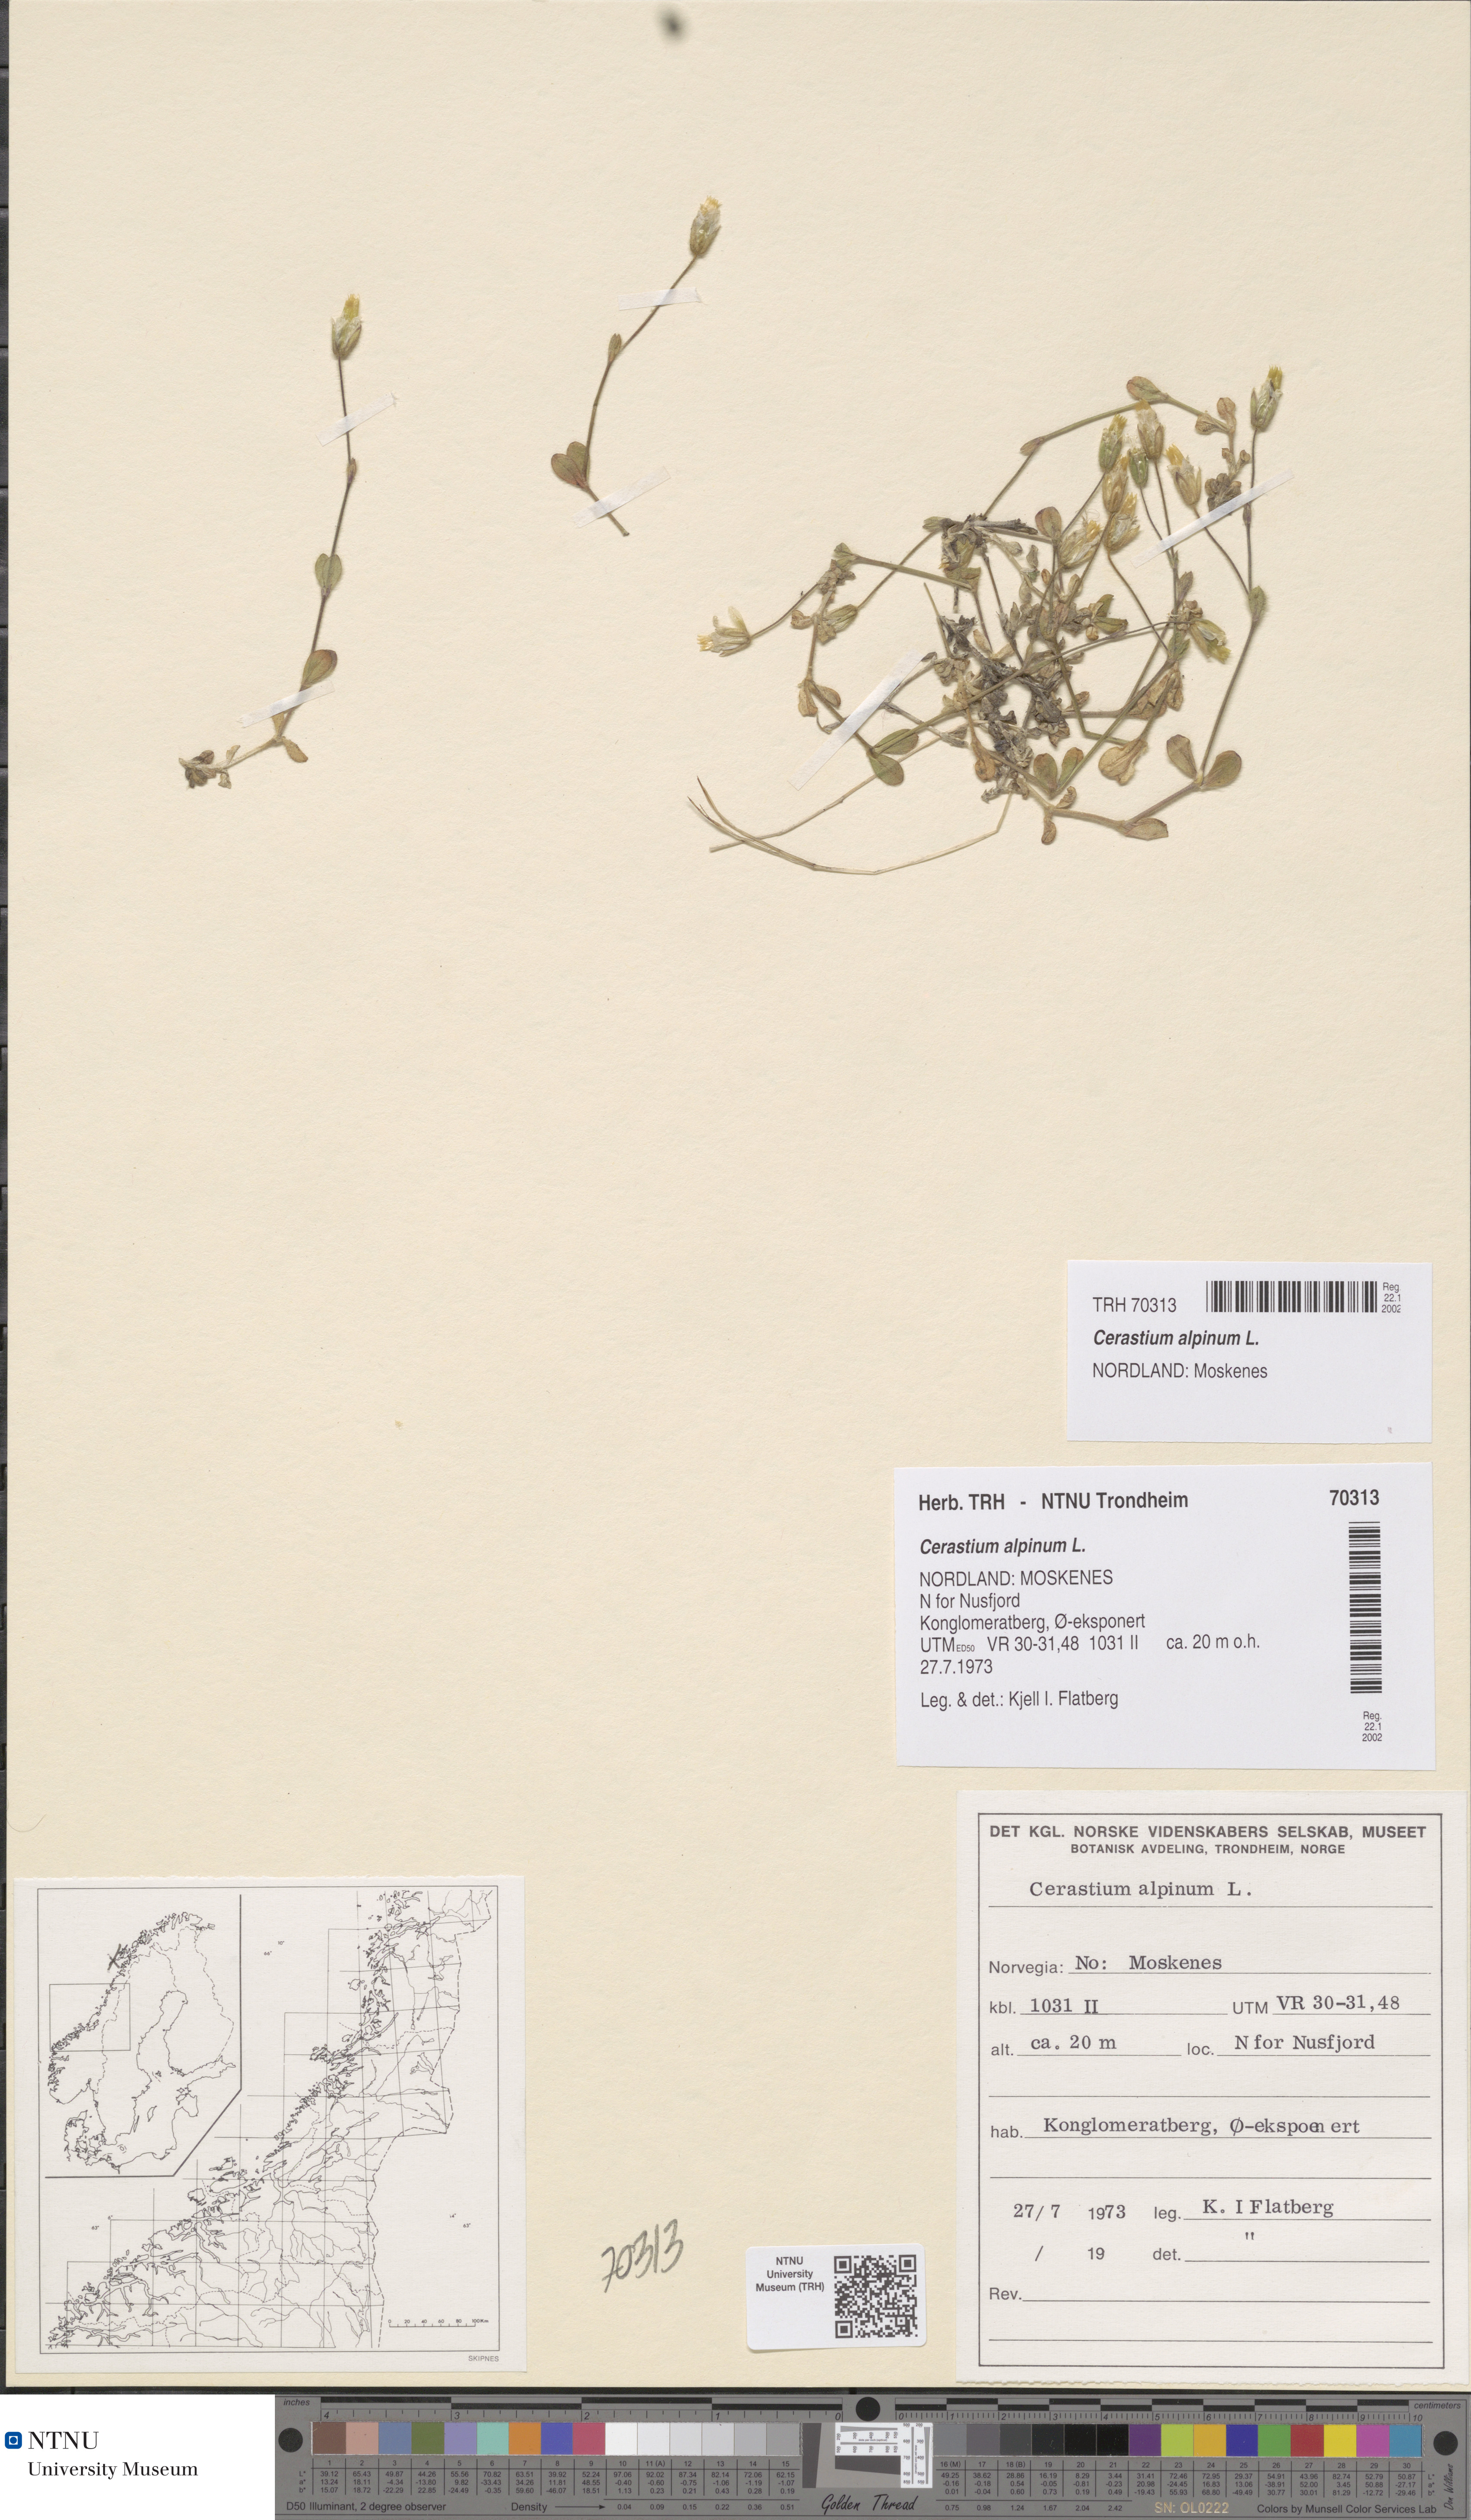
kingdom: Plantae
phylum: Tracheophyta
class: Magnoliopsida
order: Caryophyllales
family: Caryophyllaceae
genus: Cerastium
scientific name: Cerastium alpinum
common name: Alpine mouse-ear
